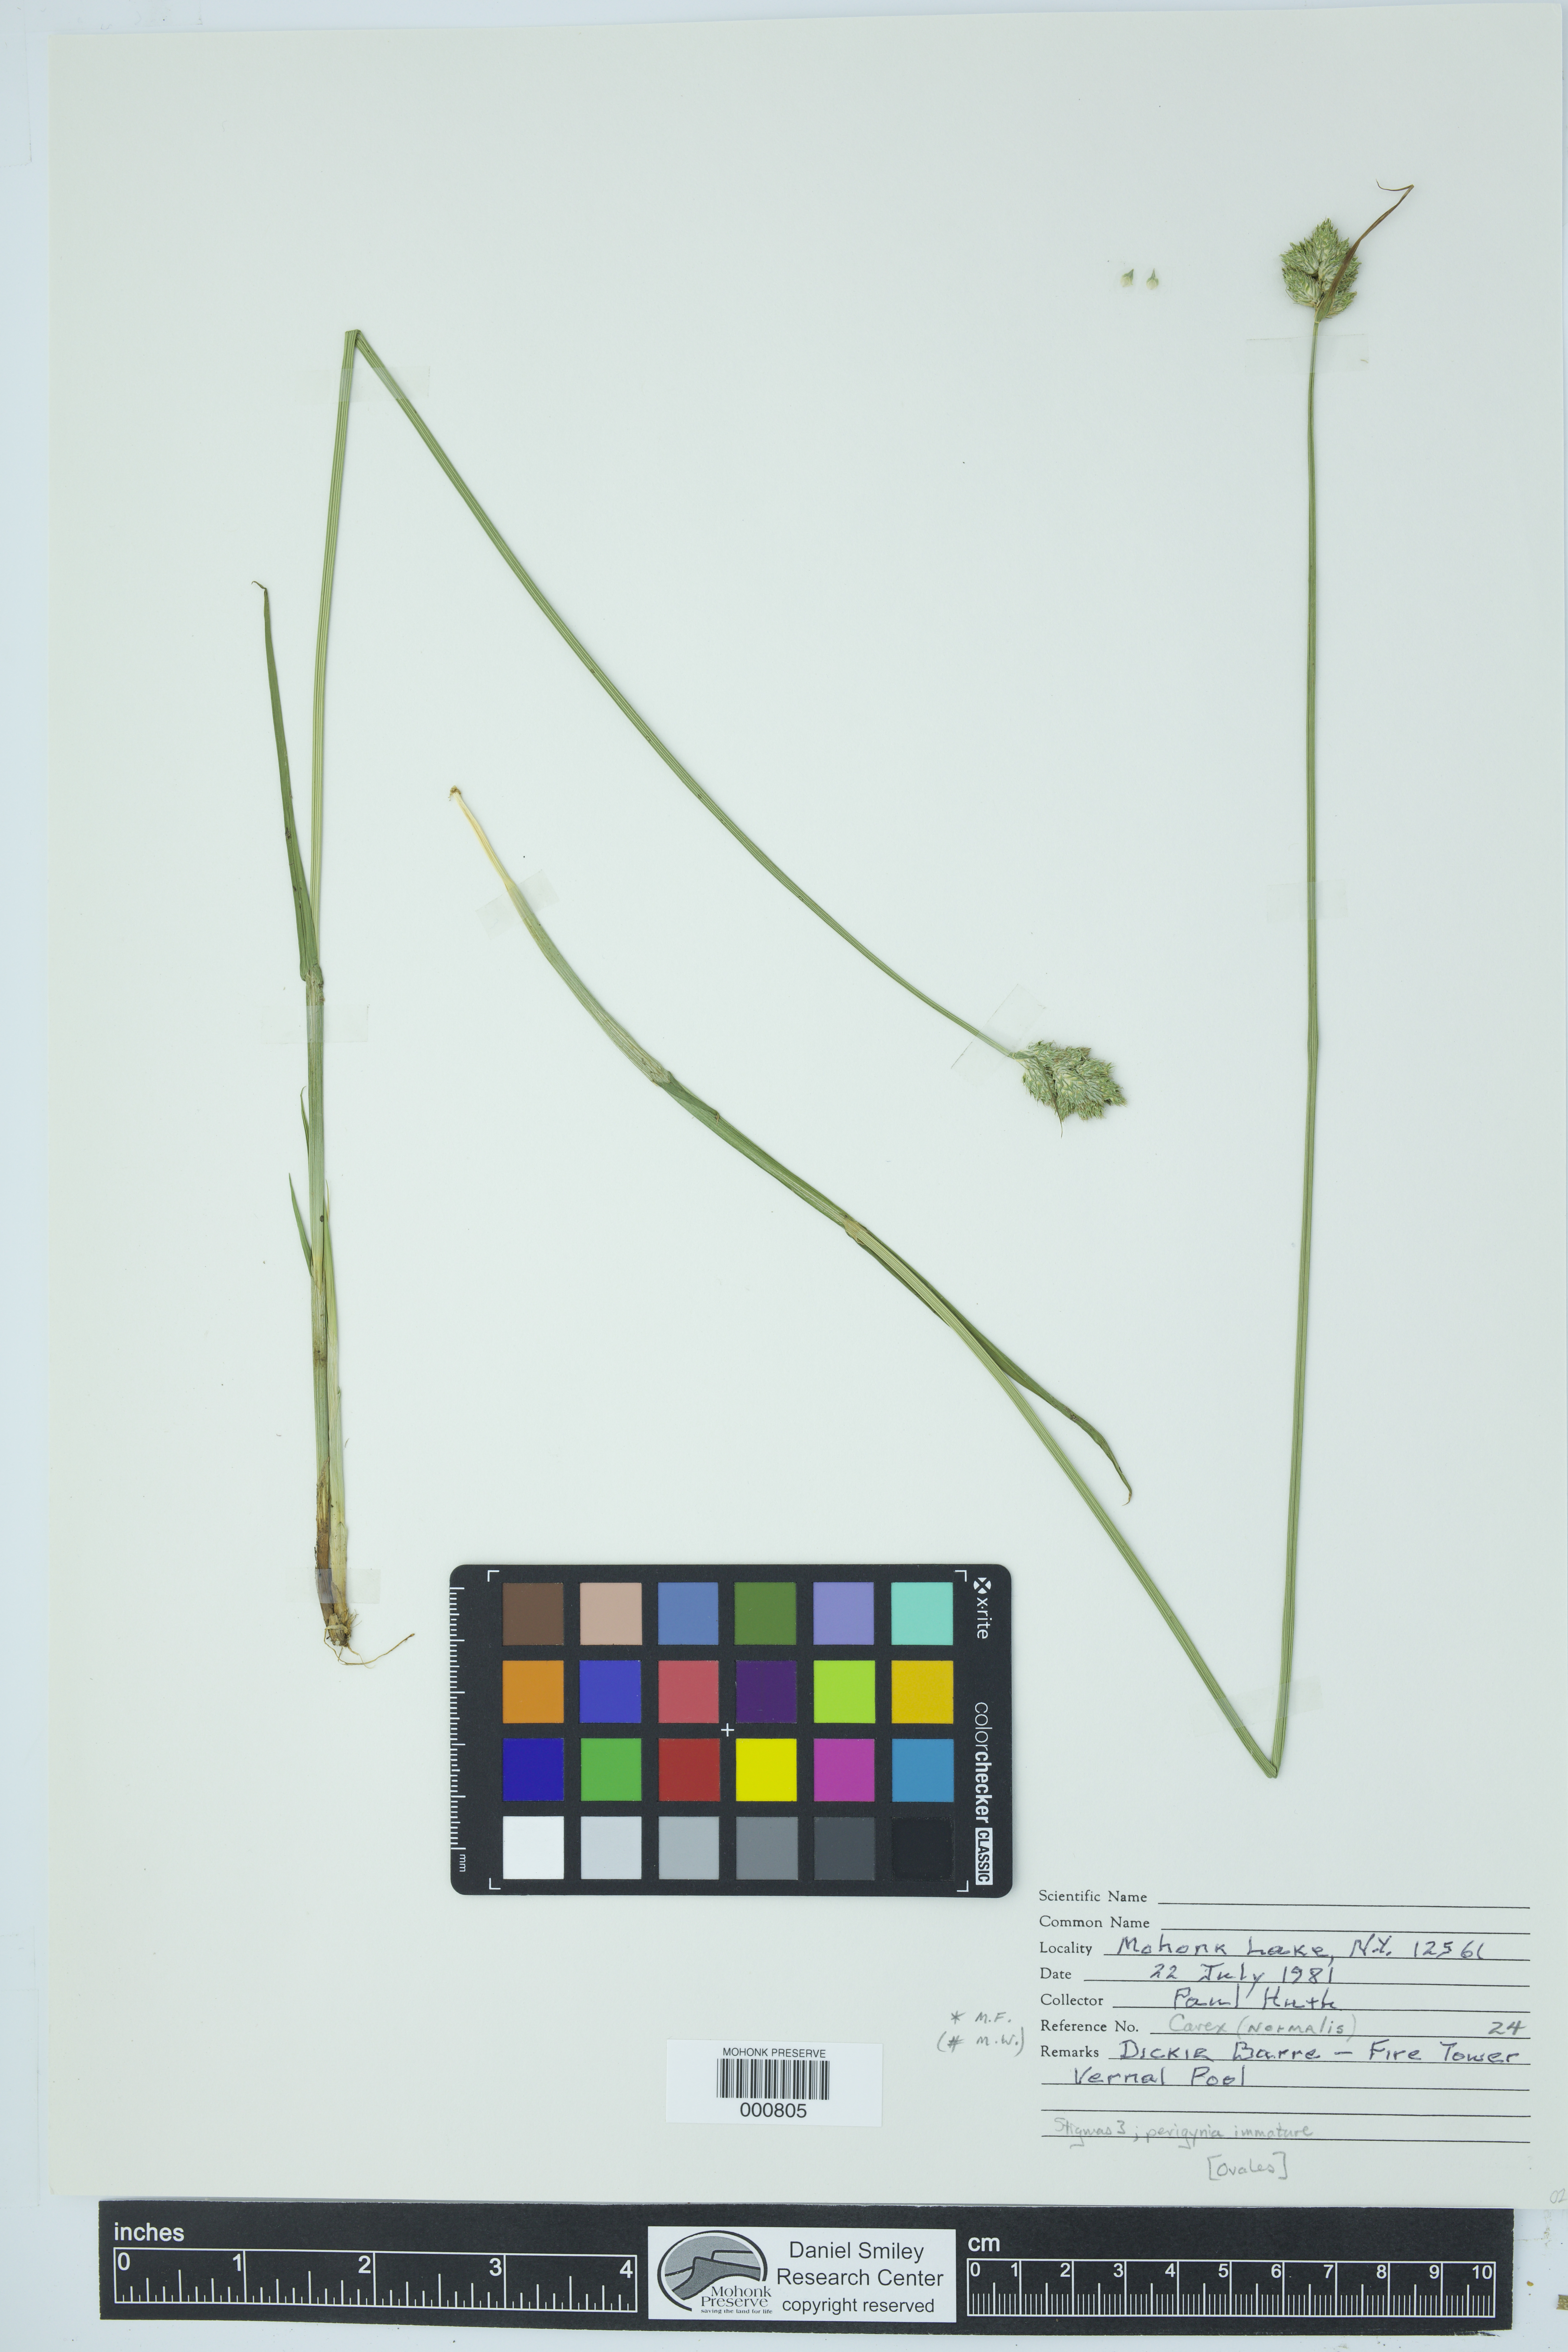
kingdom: Plantae
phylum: Tracheophyta
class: Liliopsida
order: Poales
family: Cyperaceae
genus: Carex
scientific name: Carex normalis
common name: Greater straw sedge
